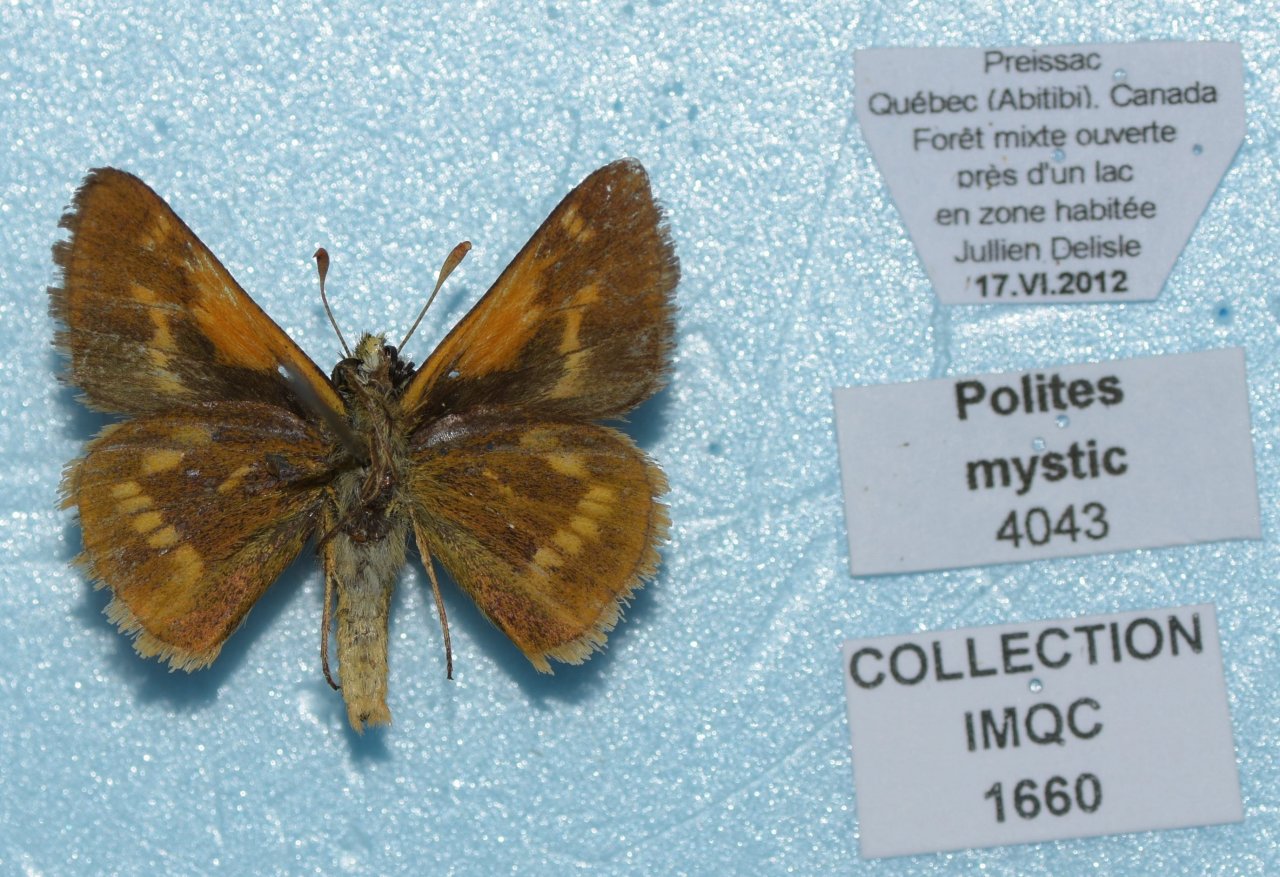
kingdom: Animalia
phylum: Arthropoda
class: Insecta
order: Lepidoptera
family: Hesperiidae
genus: Polites
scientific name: Polites
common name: Long Dash Skipper
